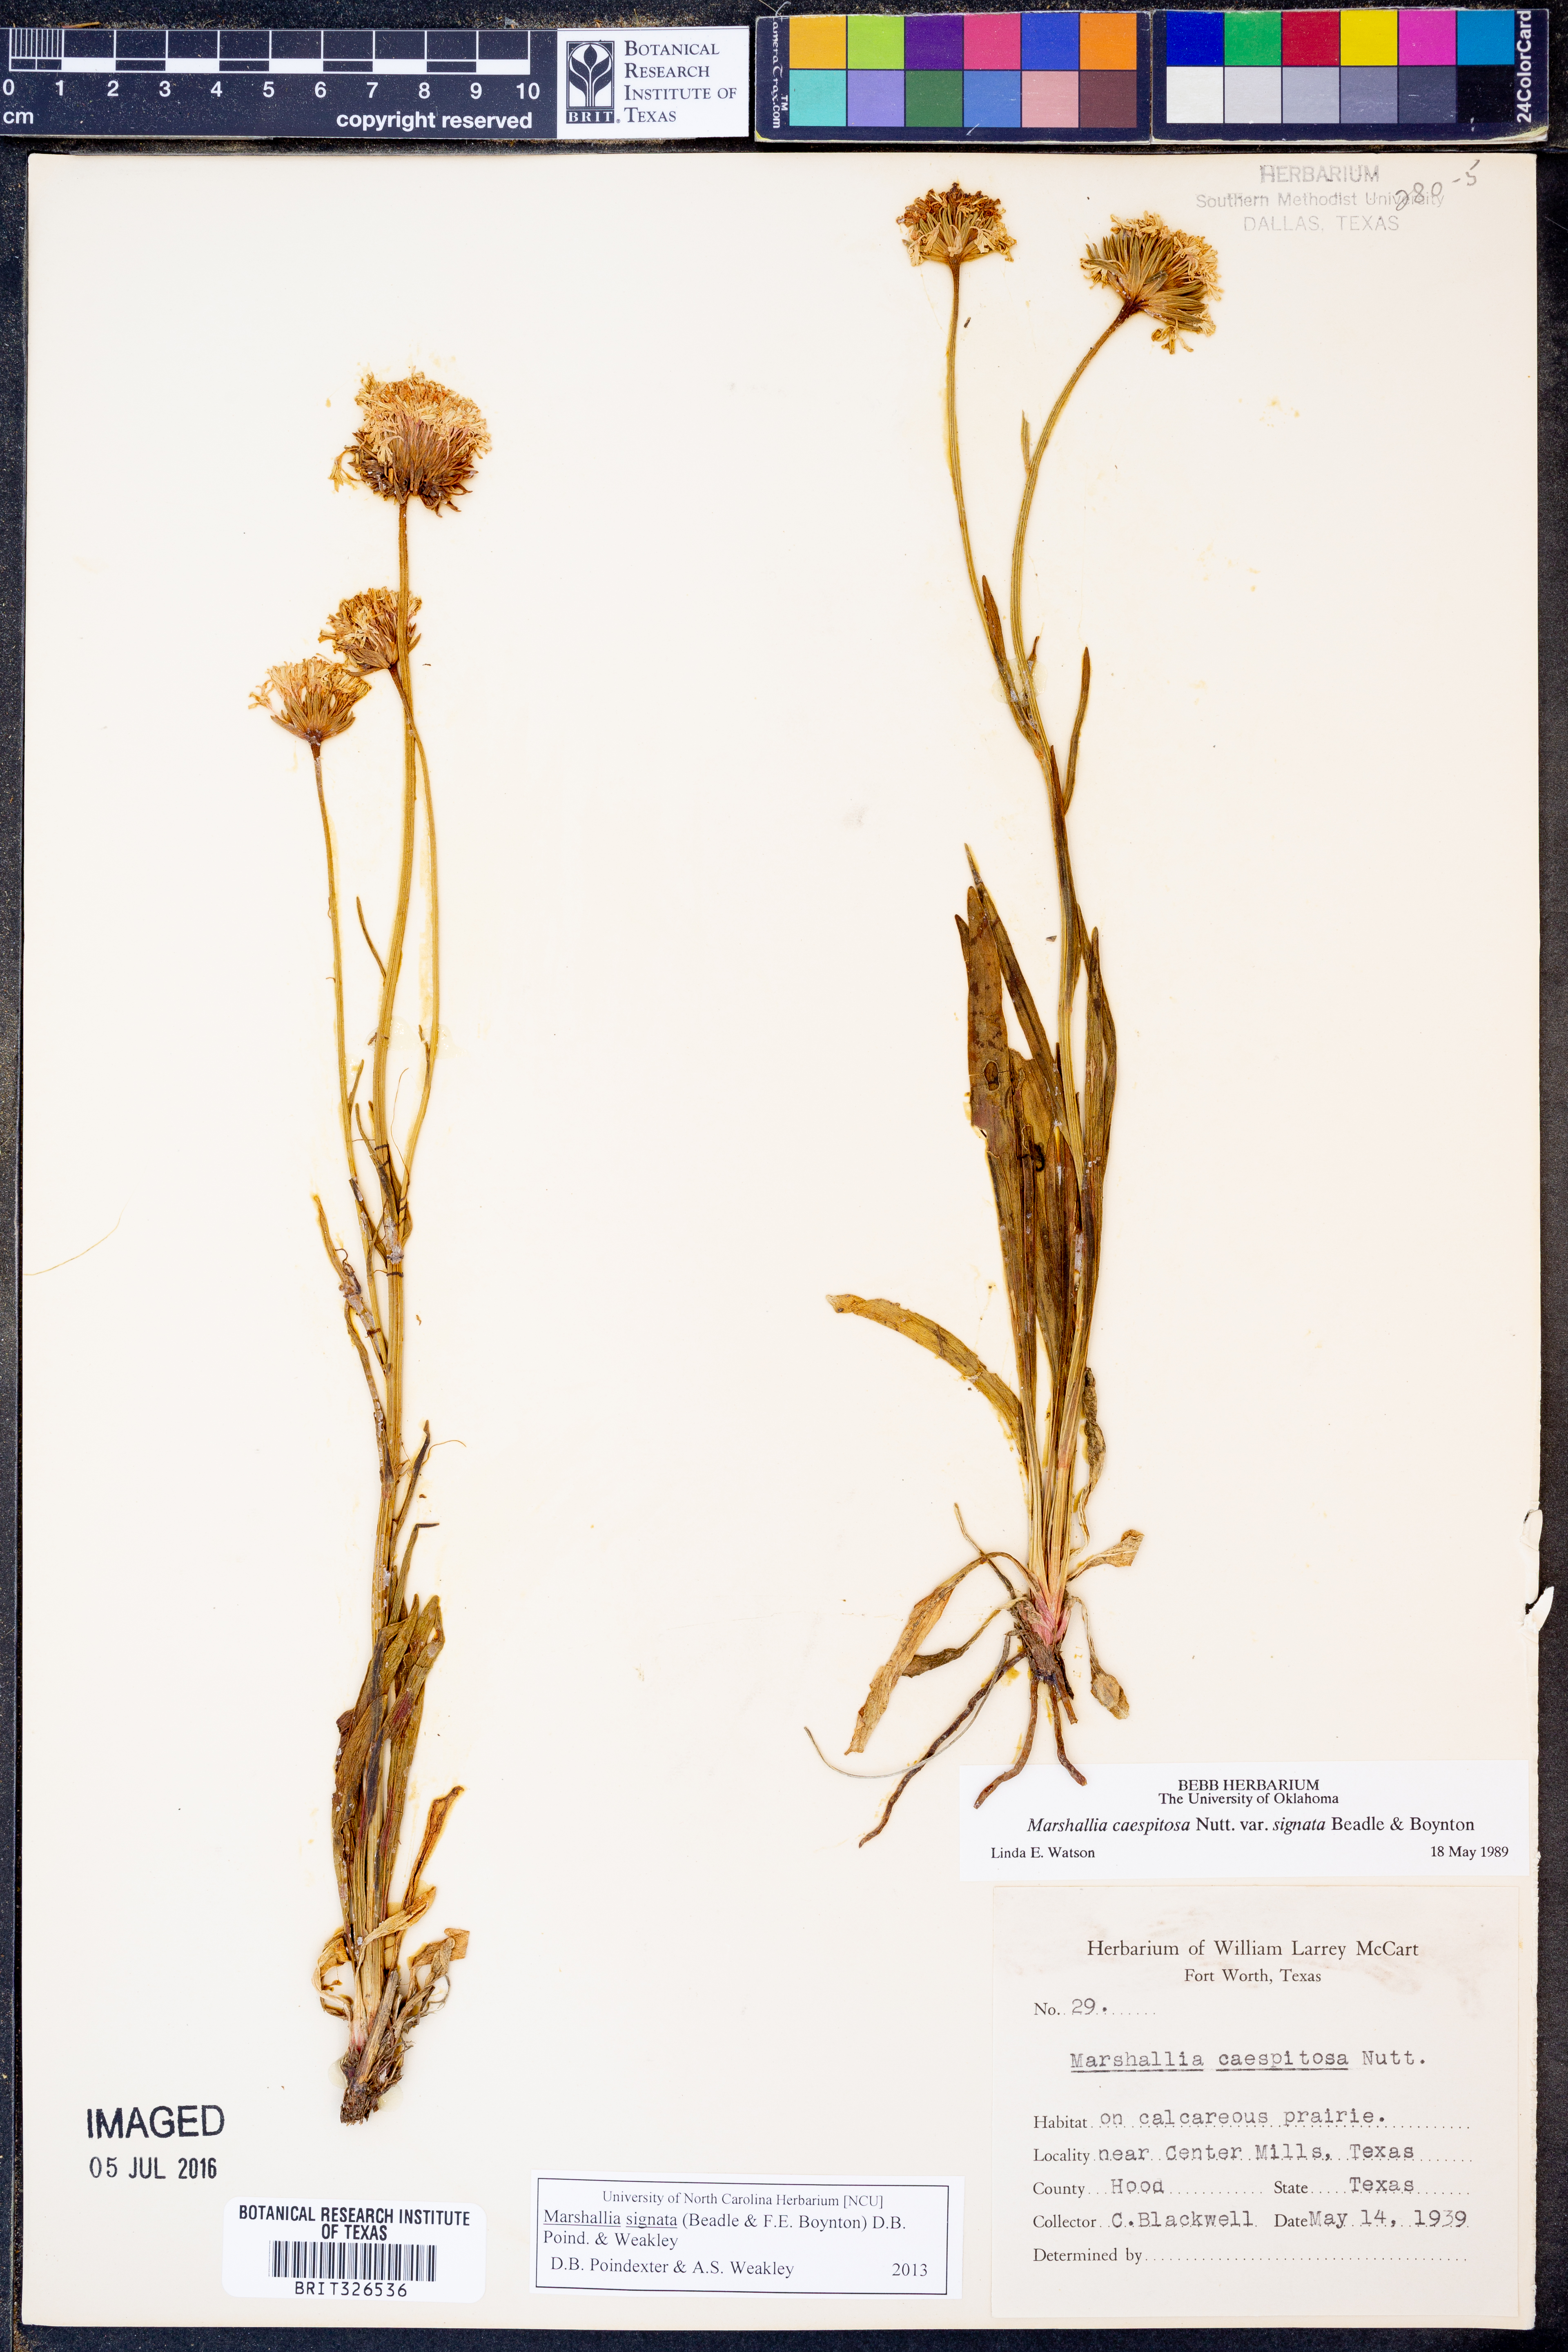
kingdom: Plantae
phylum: Tracheophyta
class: Magnoliopsida
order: Asterales
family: Asteraceae
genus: Marshallia
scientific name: Marshallia
